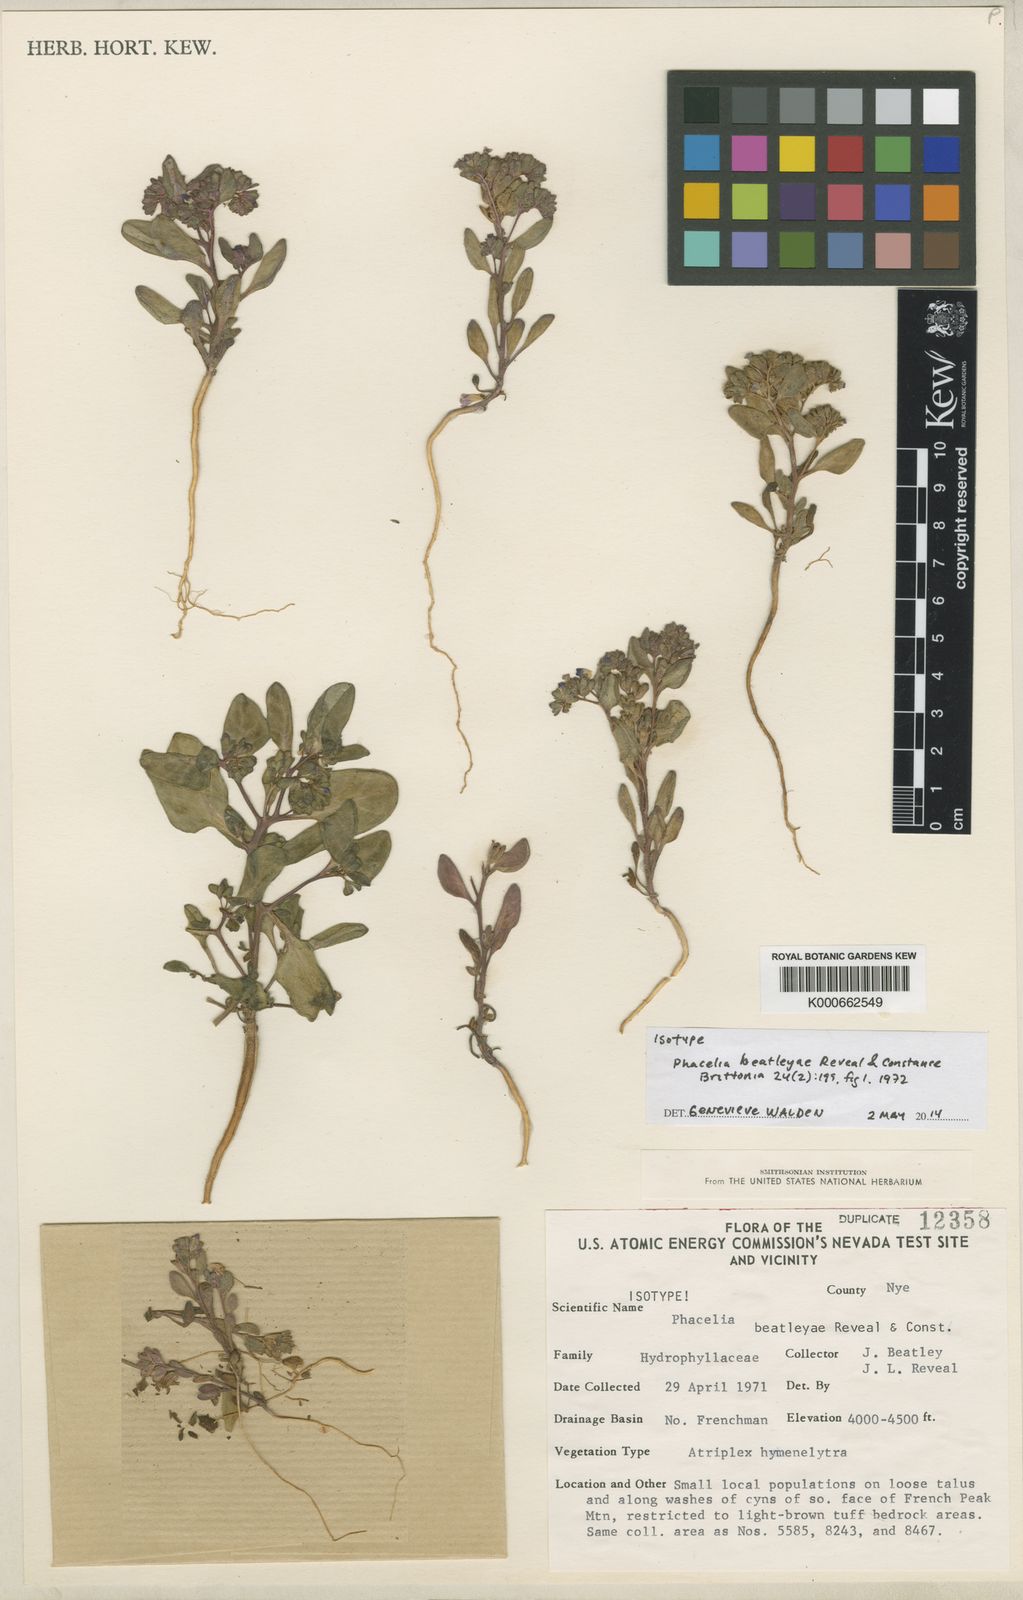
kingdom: Plantae
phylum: Tracheophyta
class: Magnoliopsida
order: Boraginales
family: Hydrophyllaceae
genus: Phacelia
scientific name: Phacelia beatleyae
